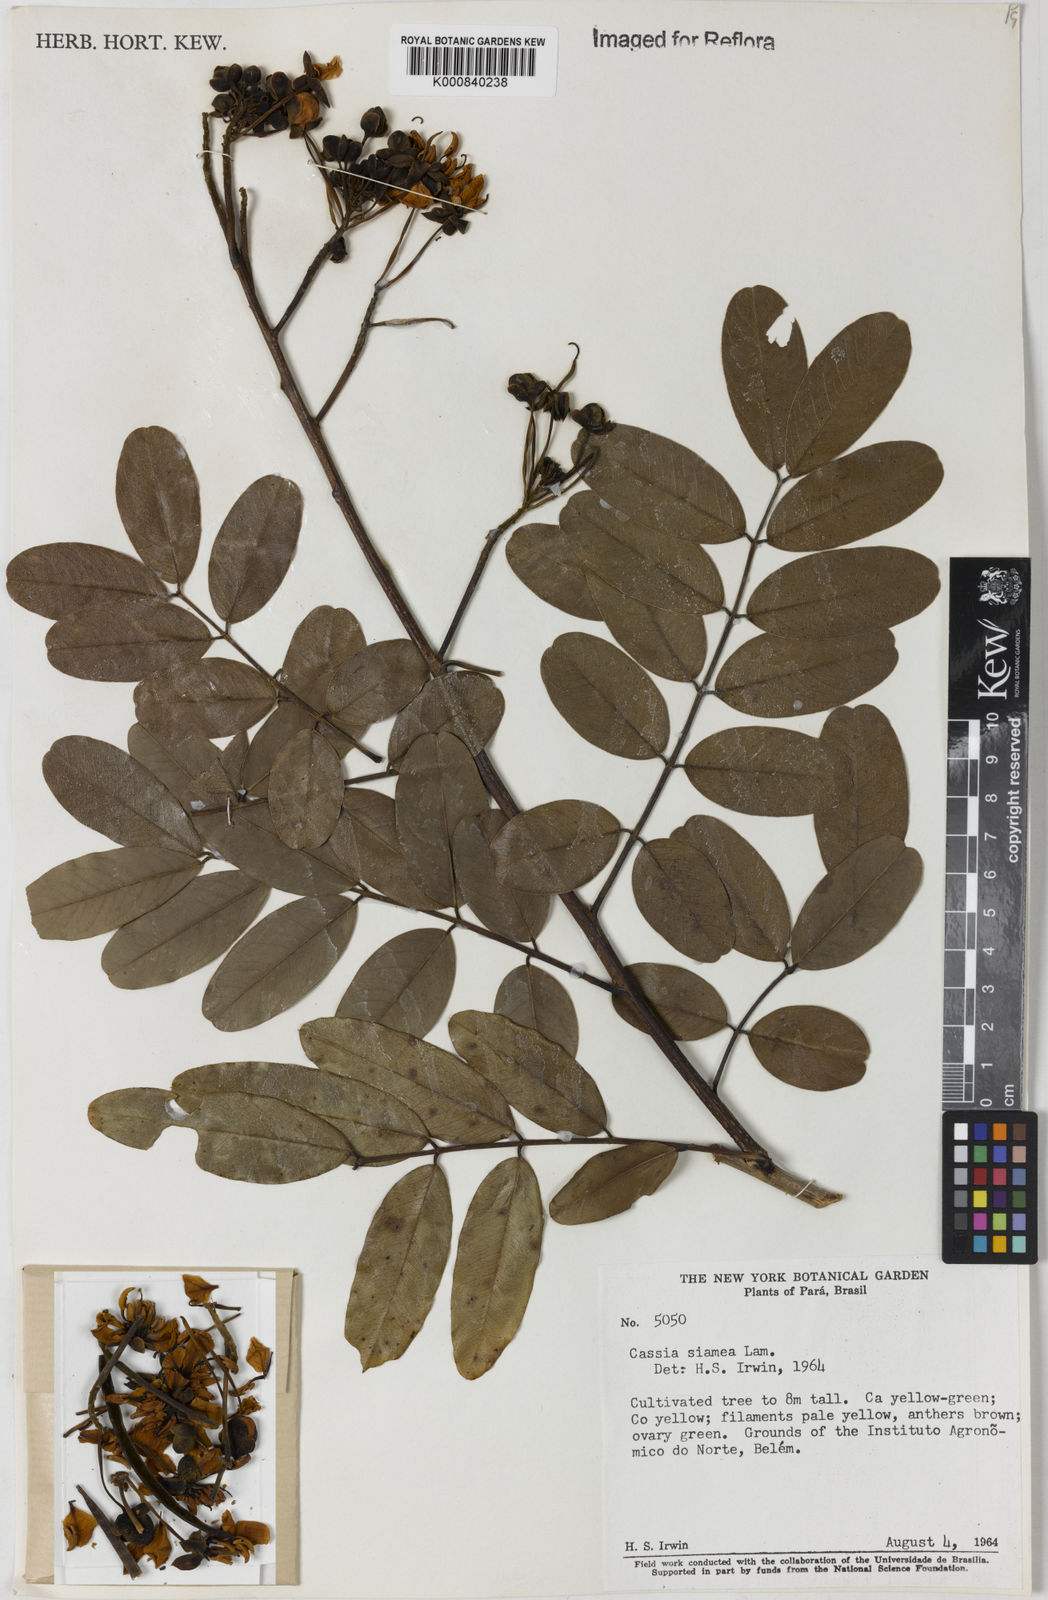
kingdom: Plantae
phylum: Tracheophyta
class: Magnoliopsida
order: Fabales
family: Fabaceae
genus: Senna
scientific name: Senna siamea
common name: Siamese cassia
